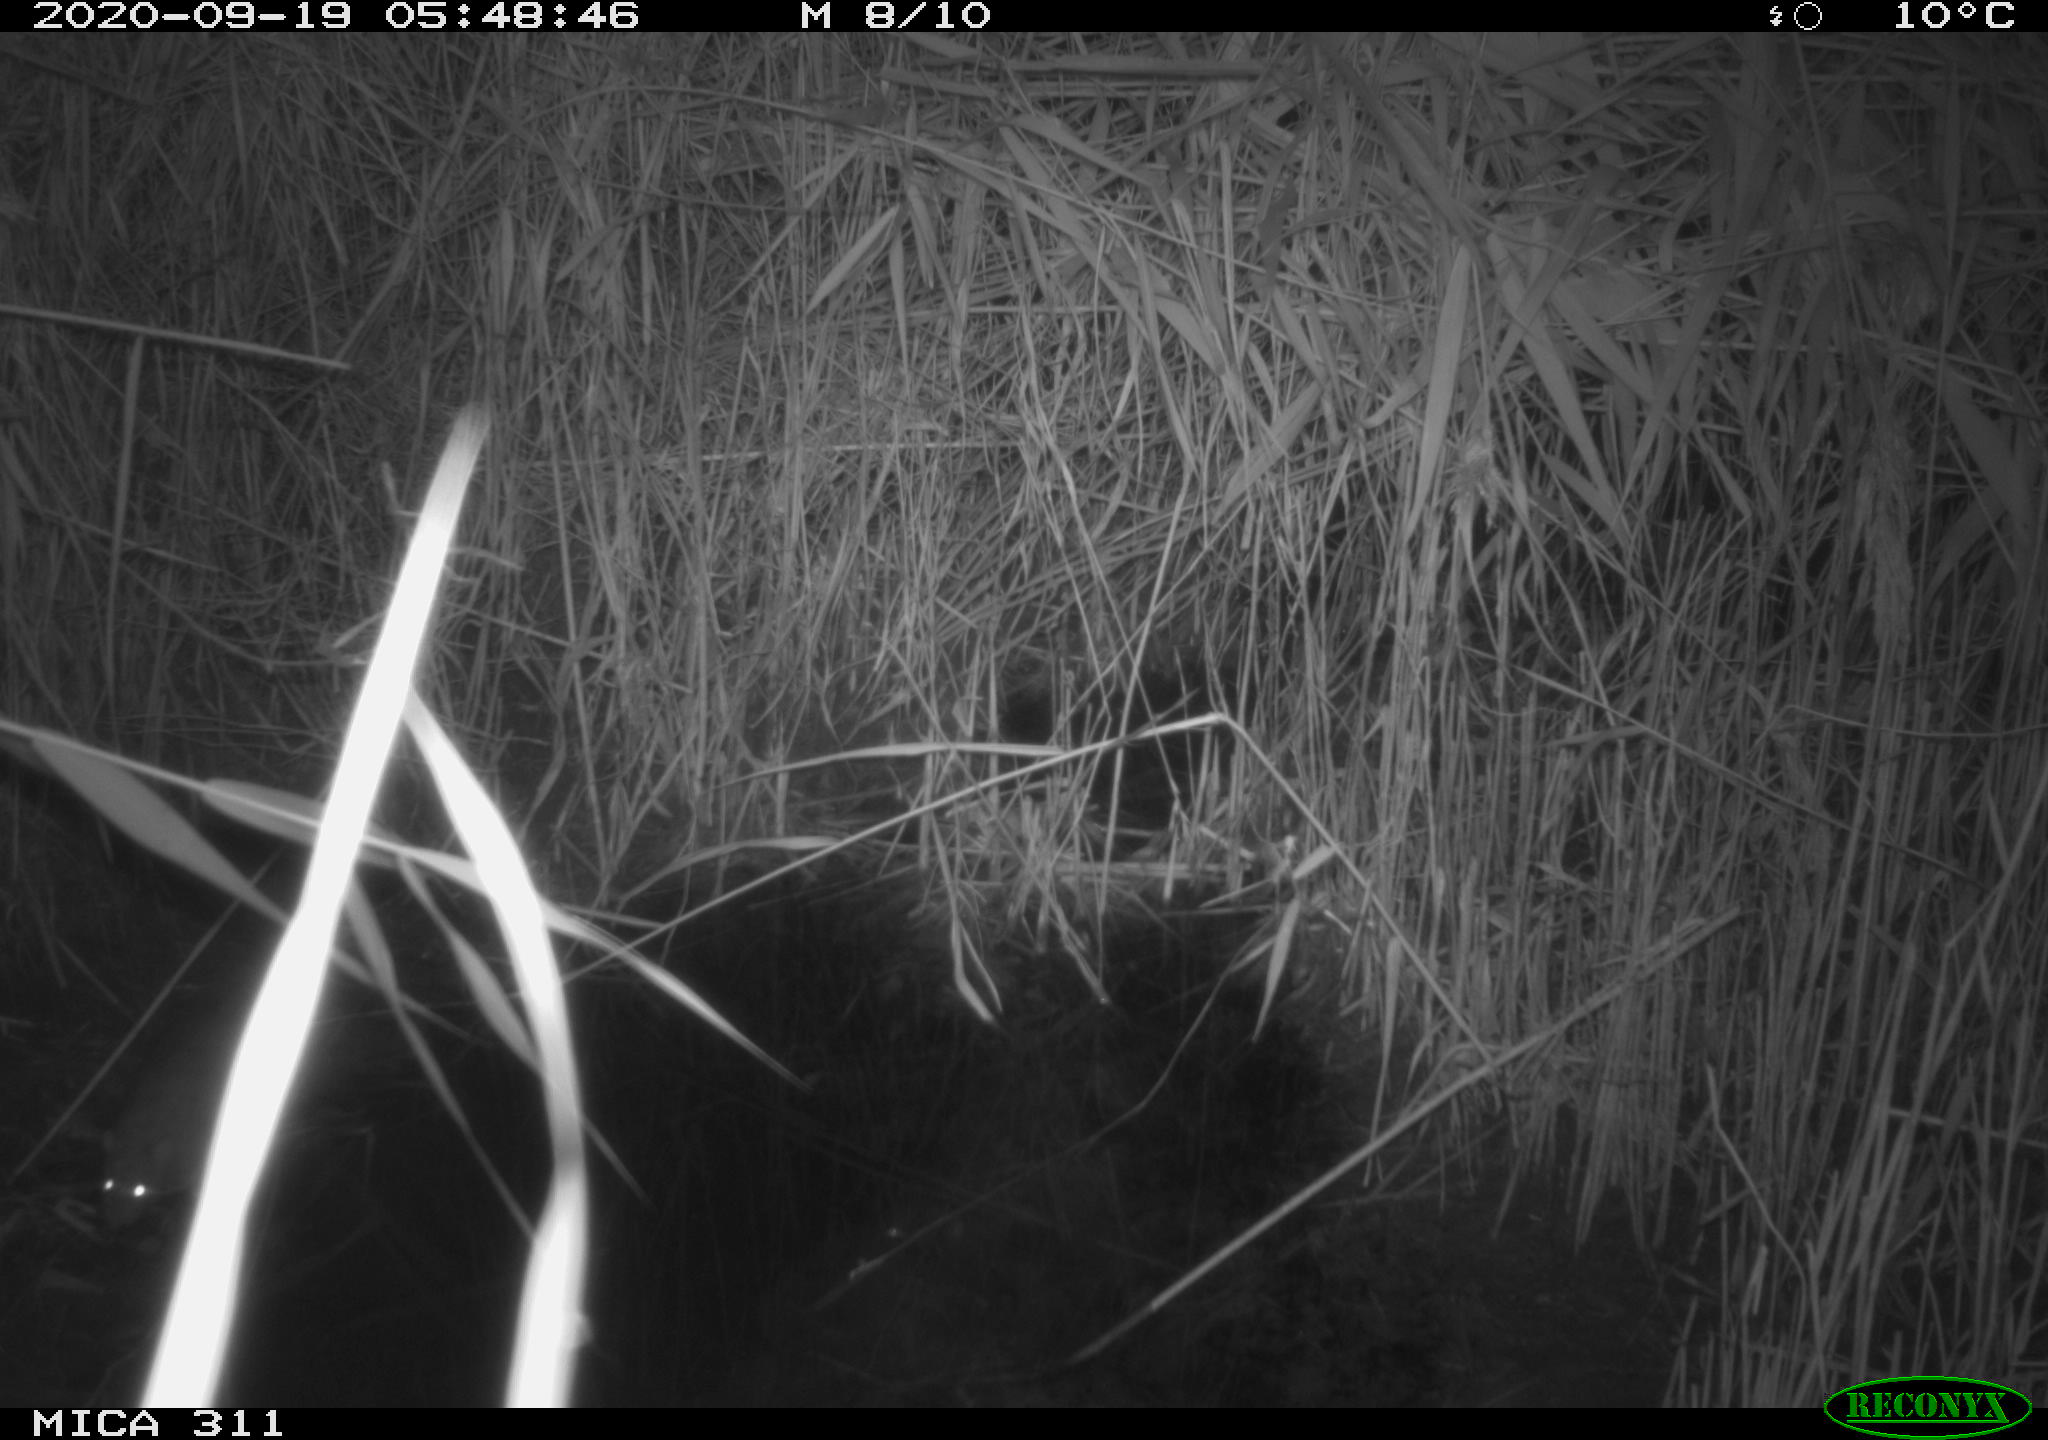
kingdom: Animalia
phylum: Chordata
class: Mammalia
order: Rodentia
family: Muridae
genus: Rattus
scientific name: Rattus norvegicus
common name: Brown rat
